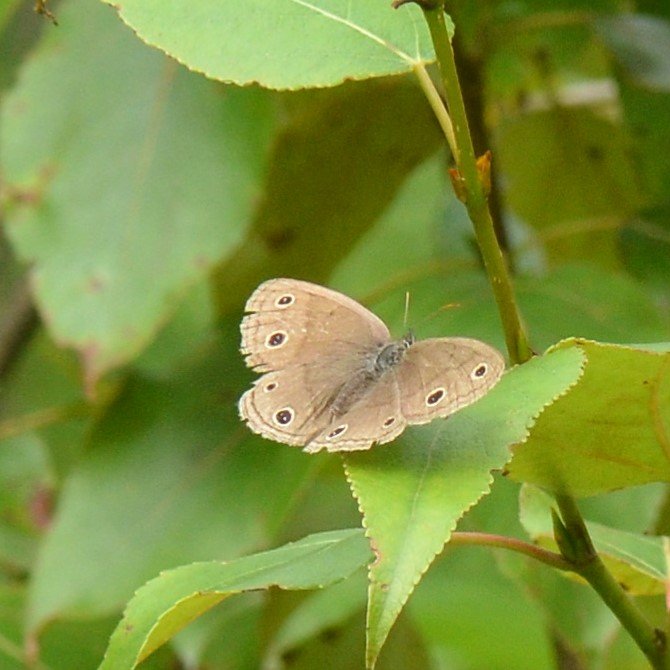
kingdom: Animalia
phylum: Arthropoda
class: Insecta
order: Lepidoptera
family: Nymphalidae
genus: Euptychia
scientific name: Euptychia cymela
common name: Little Wood Satyr
